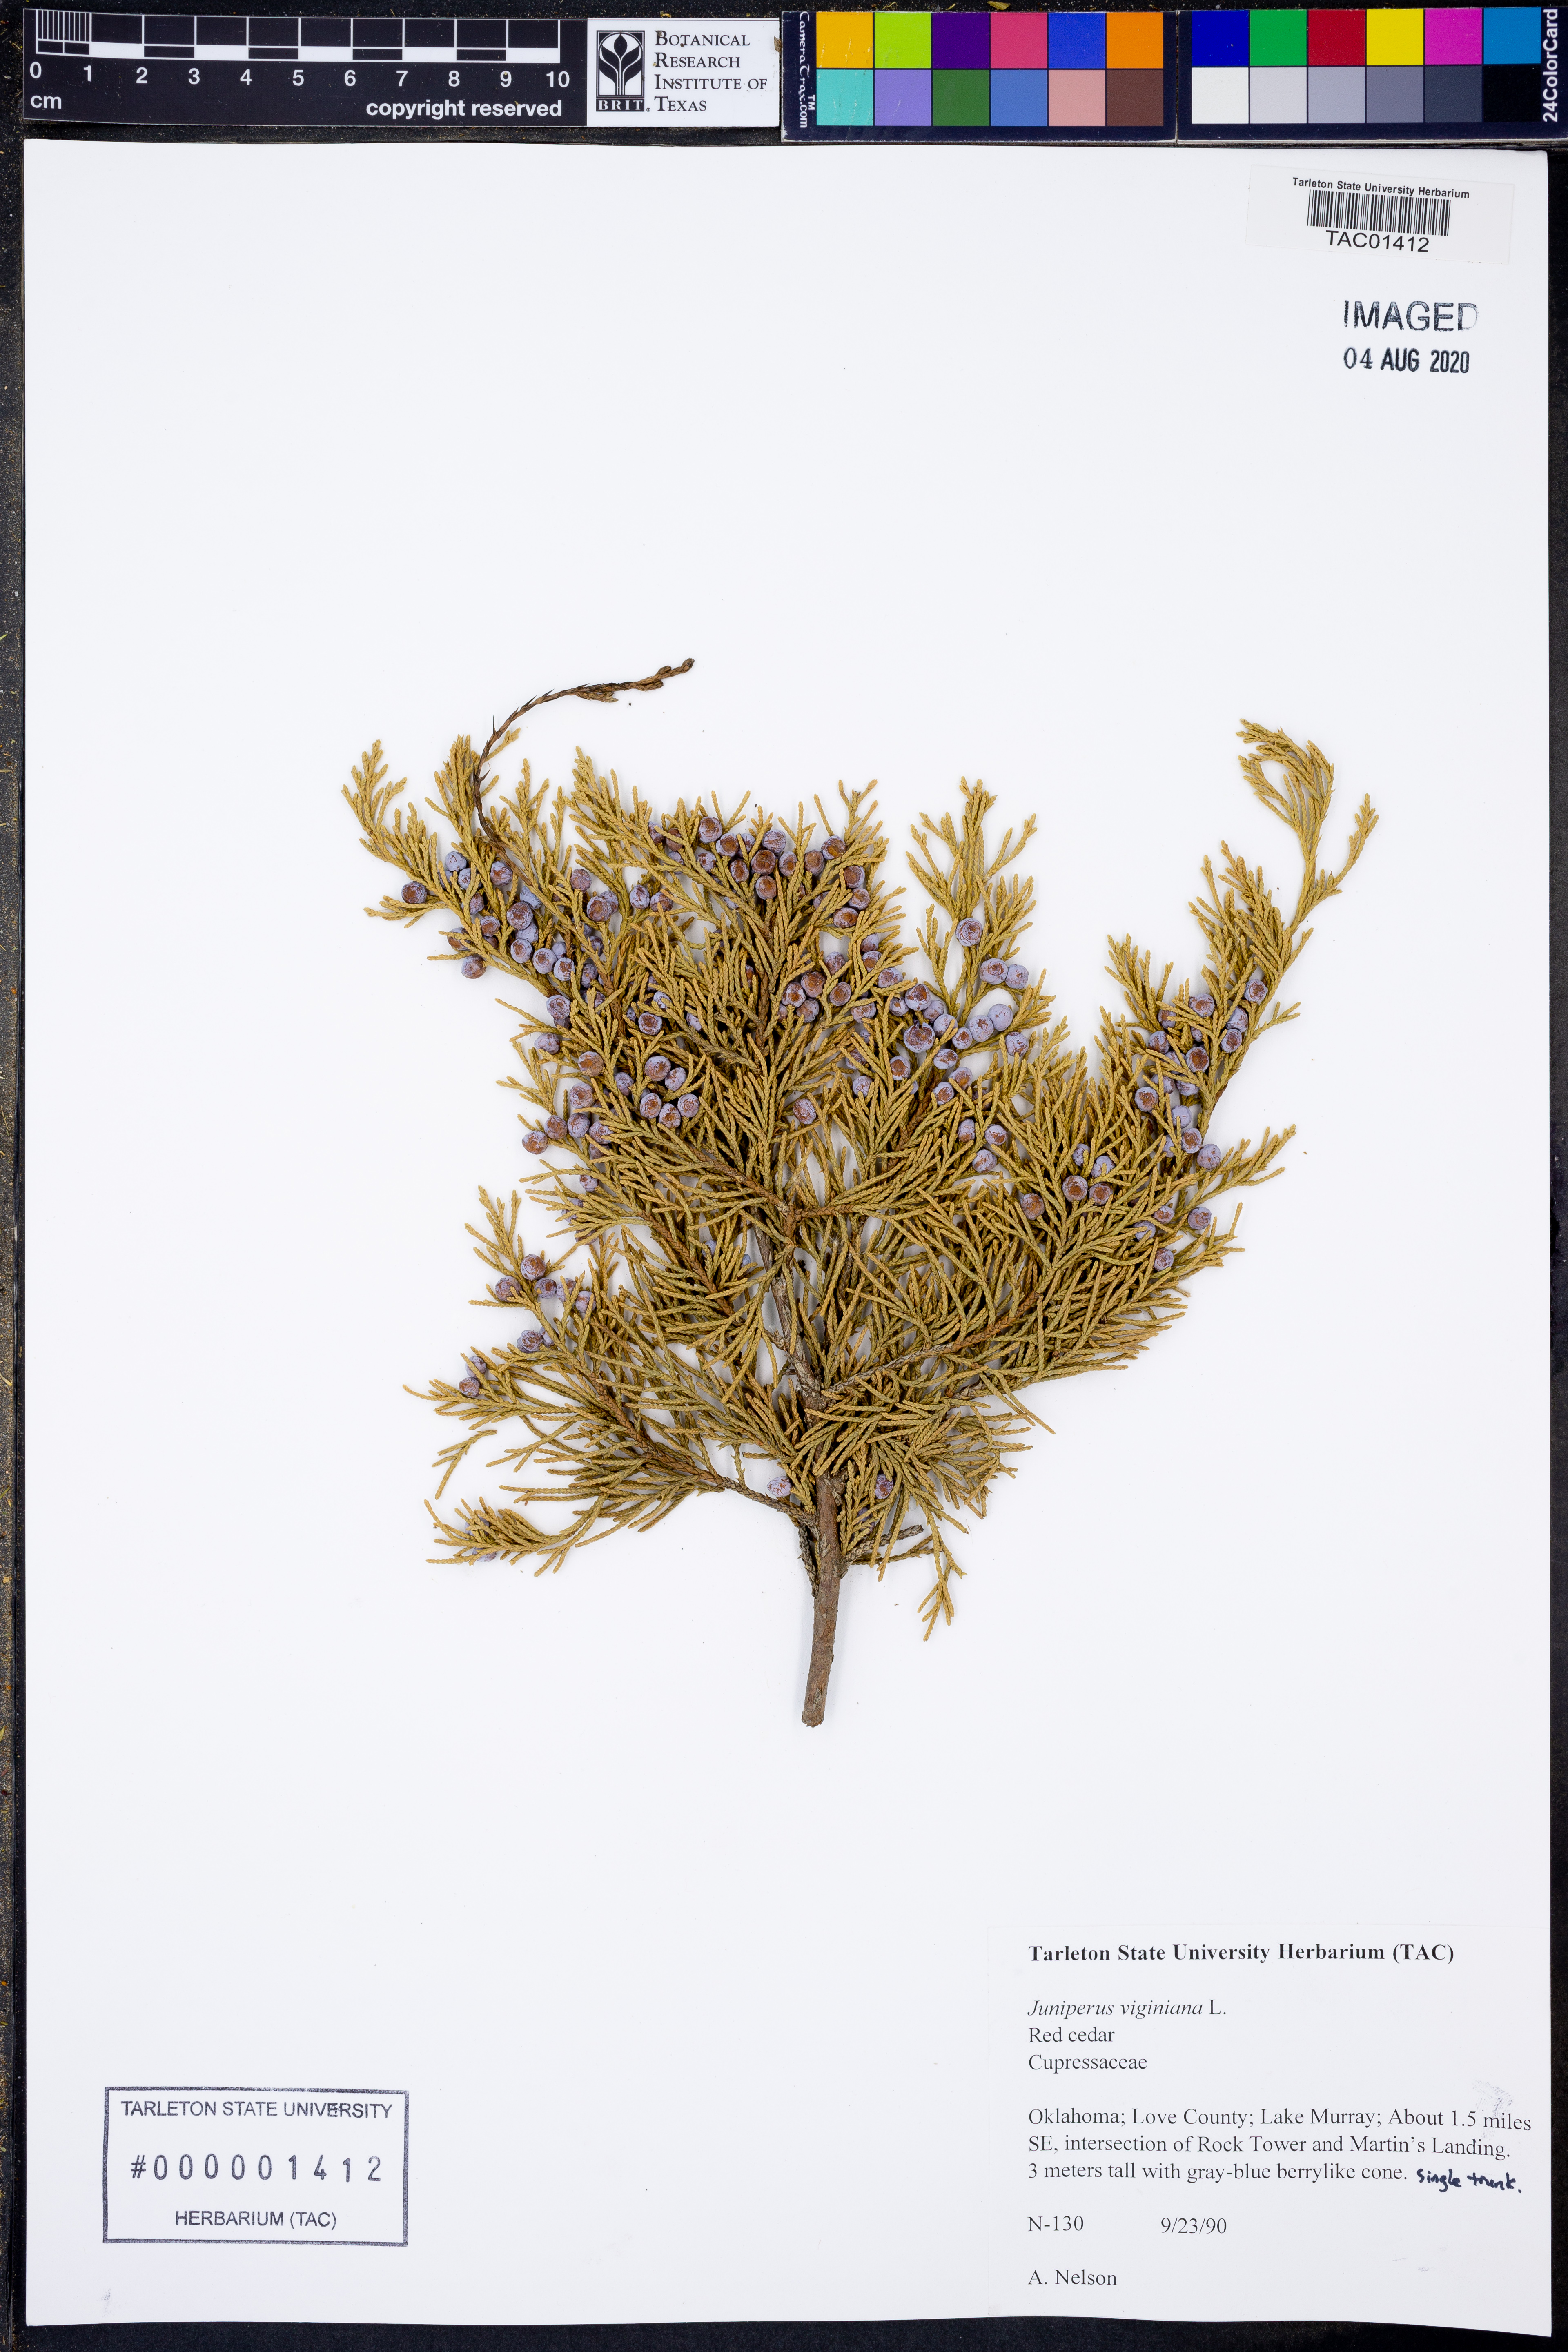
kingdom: Plantae
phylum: Tracheophyta
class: Pinopsida
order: Pinales
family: Cupressaceae
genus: Juniperus
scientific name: Juniperus virginiana
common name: Red juniper
